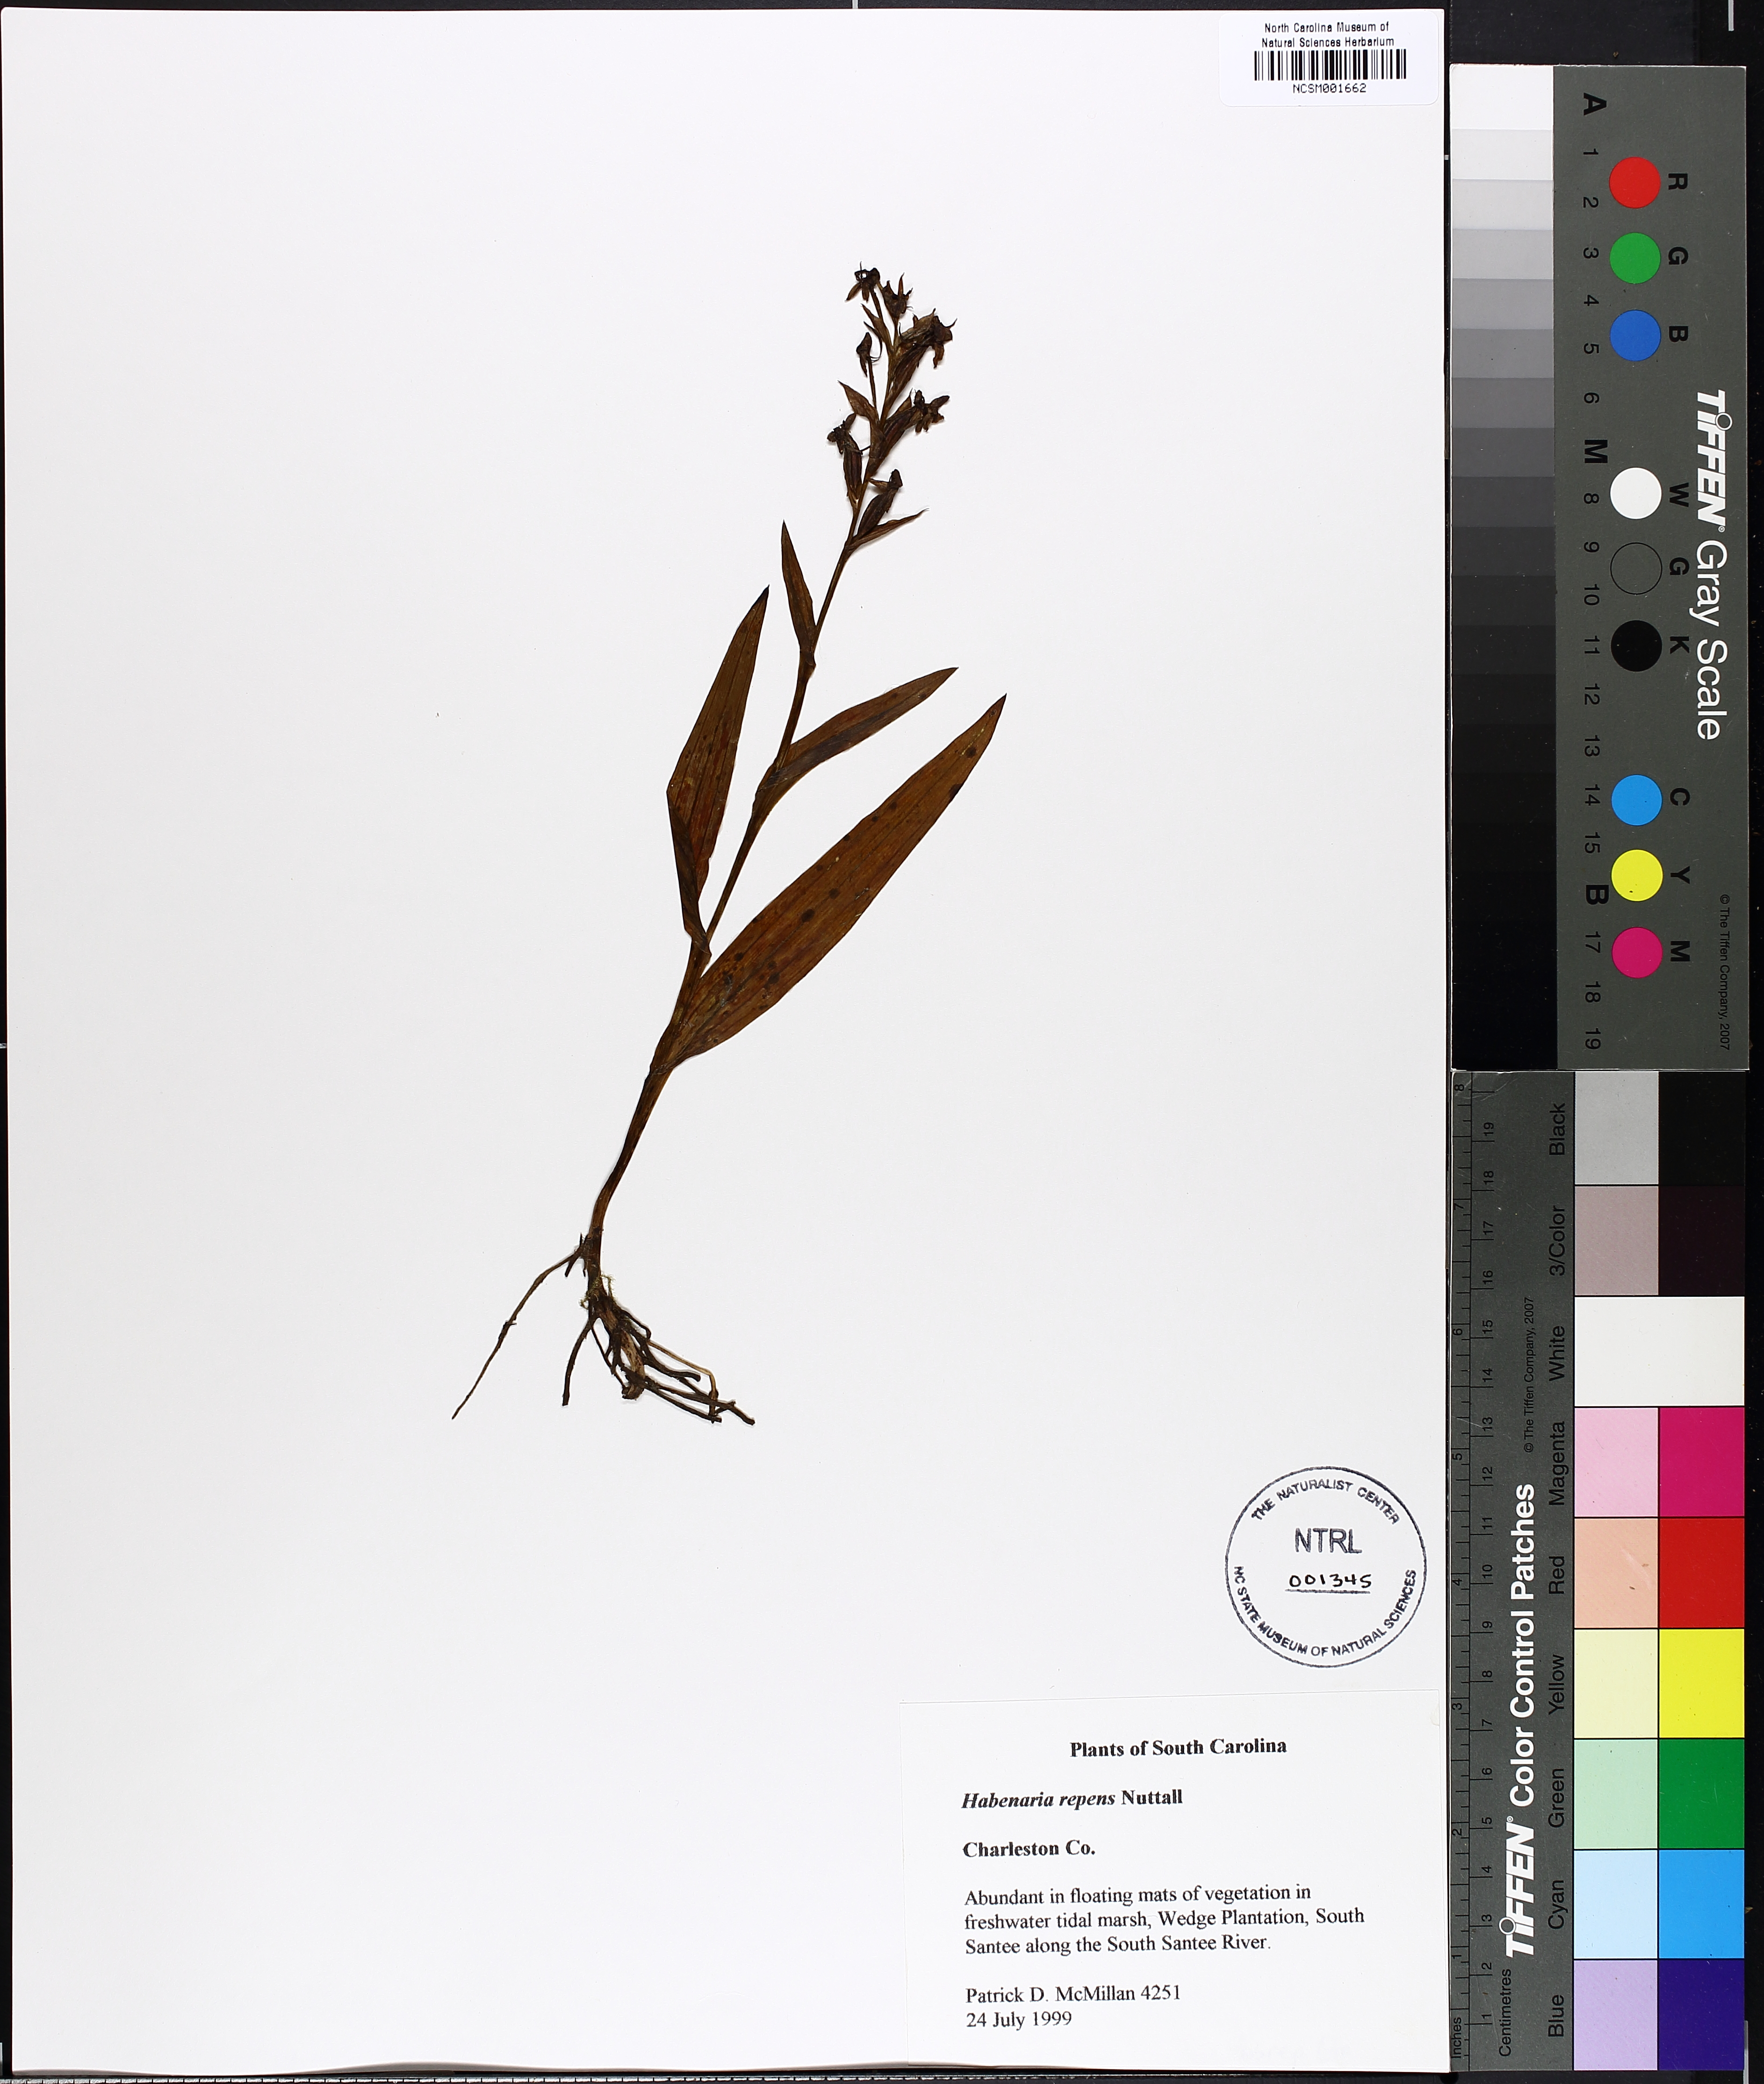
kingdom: Plantae
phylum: Tracheophyta
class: Liliopsida
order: Asparagales
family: Orchidaceae
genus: Habenaria
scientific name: Habenaria repens
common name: Water orchid
